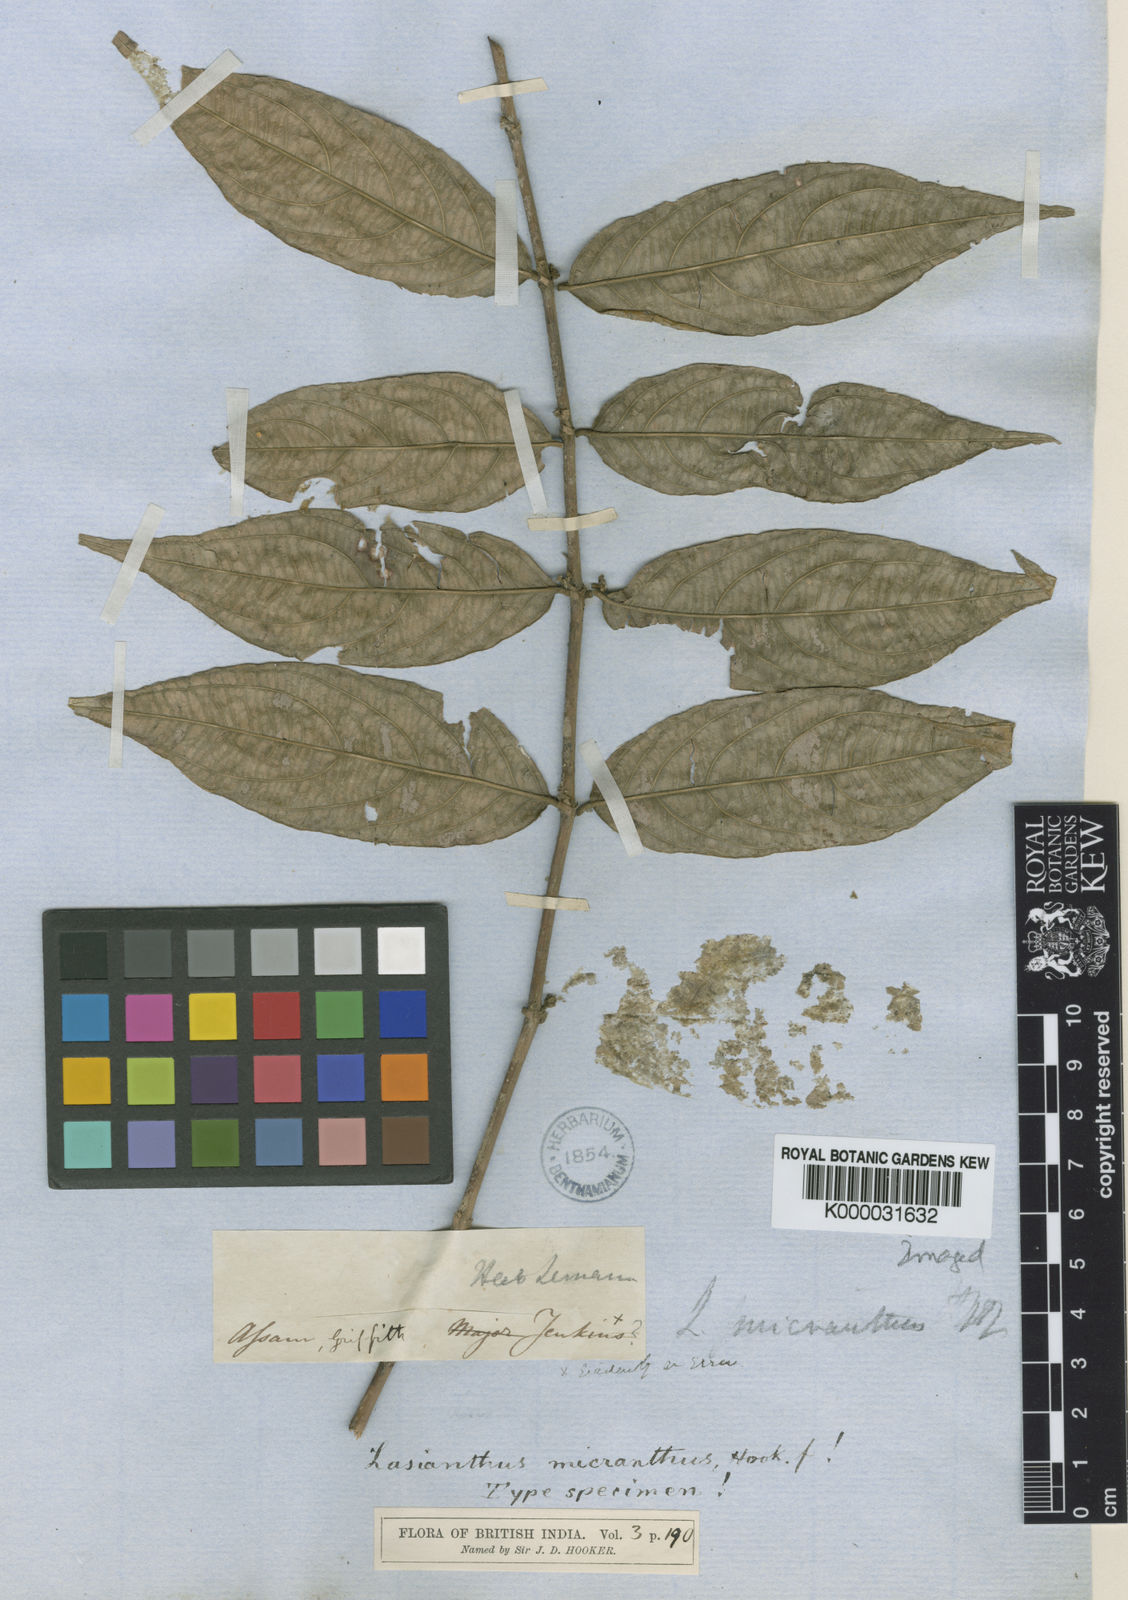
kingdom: Plantae
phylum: Tracheophyta
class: Magnoliopsida
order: Gentianales
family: Rubiaceae
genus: Lasianthus
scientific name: Lasianthus micranthus
